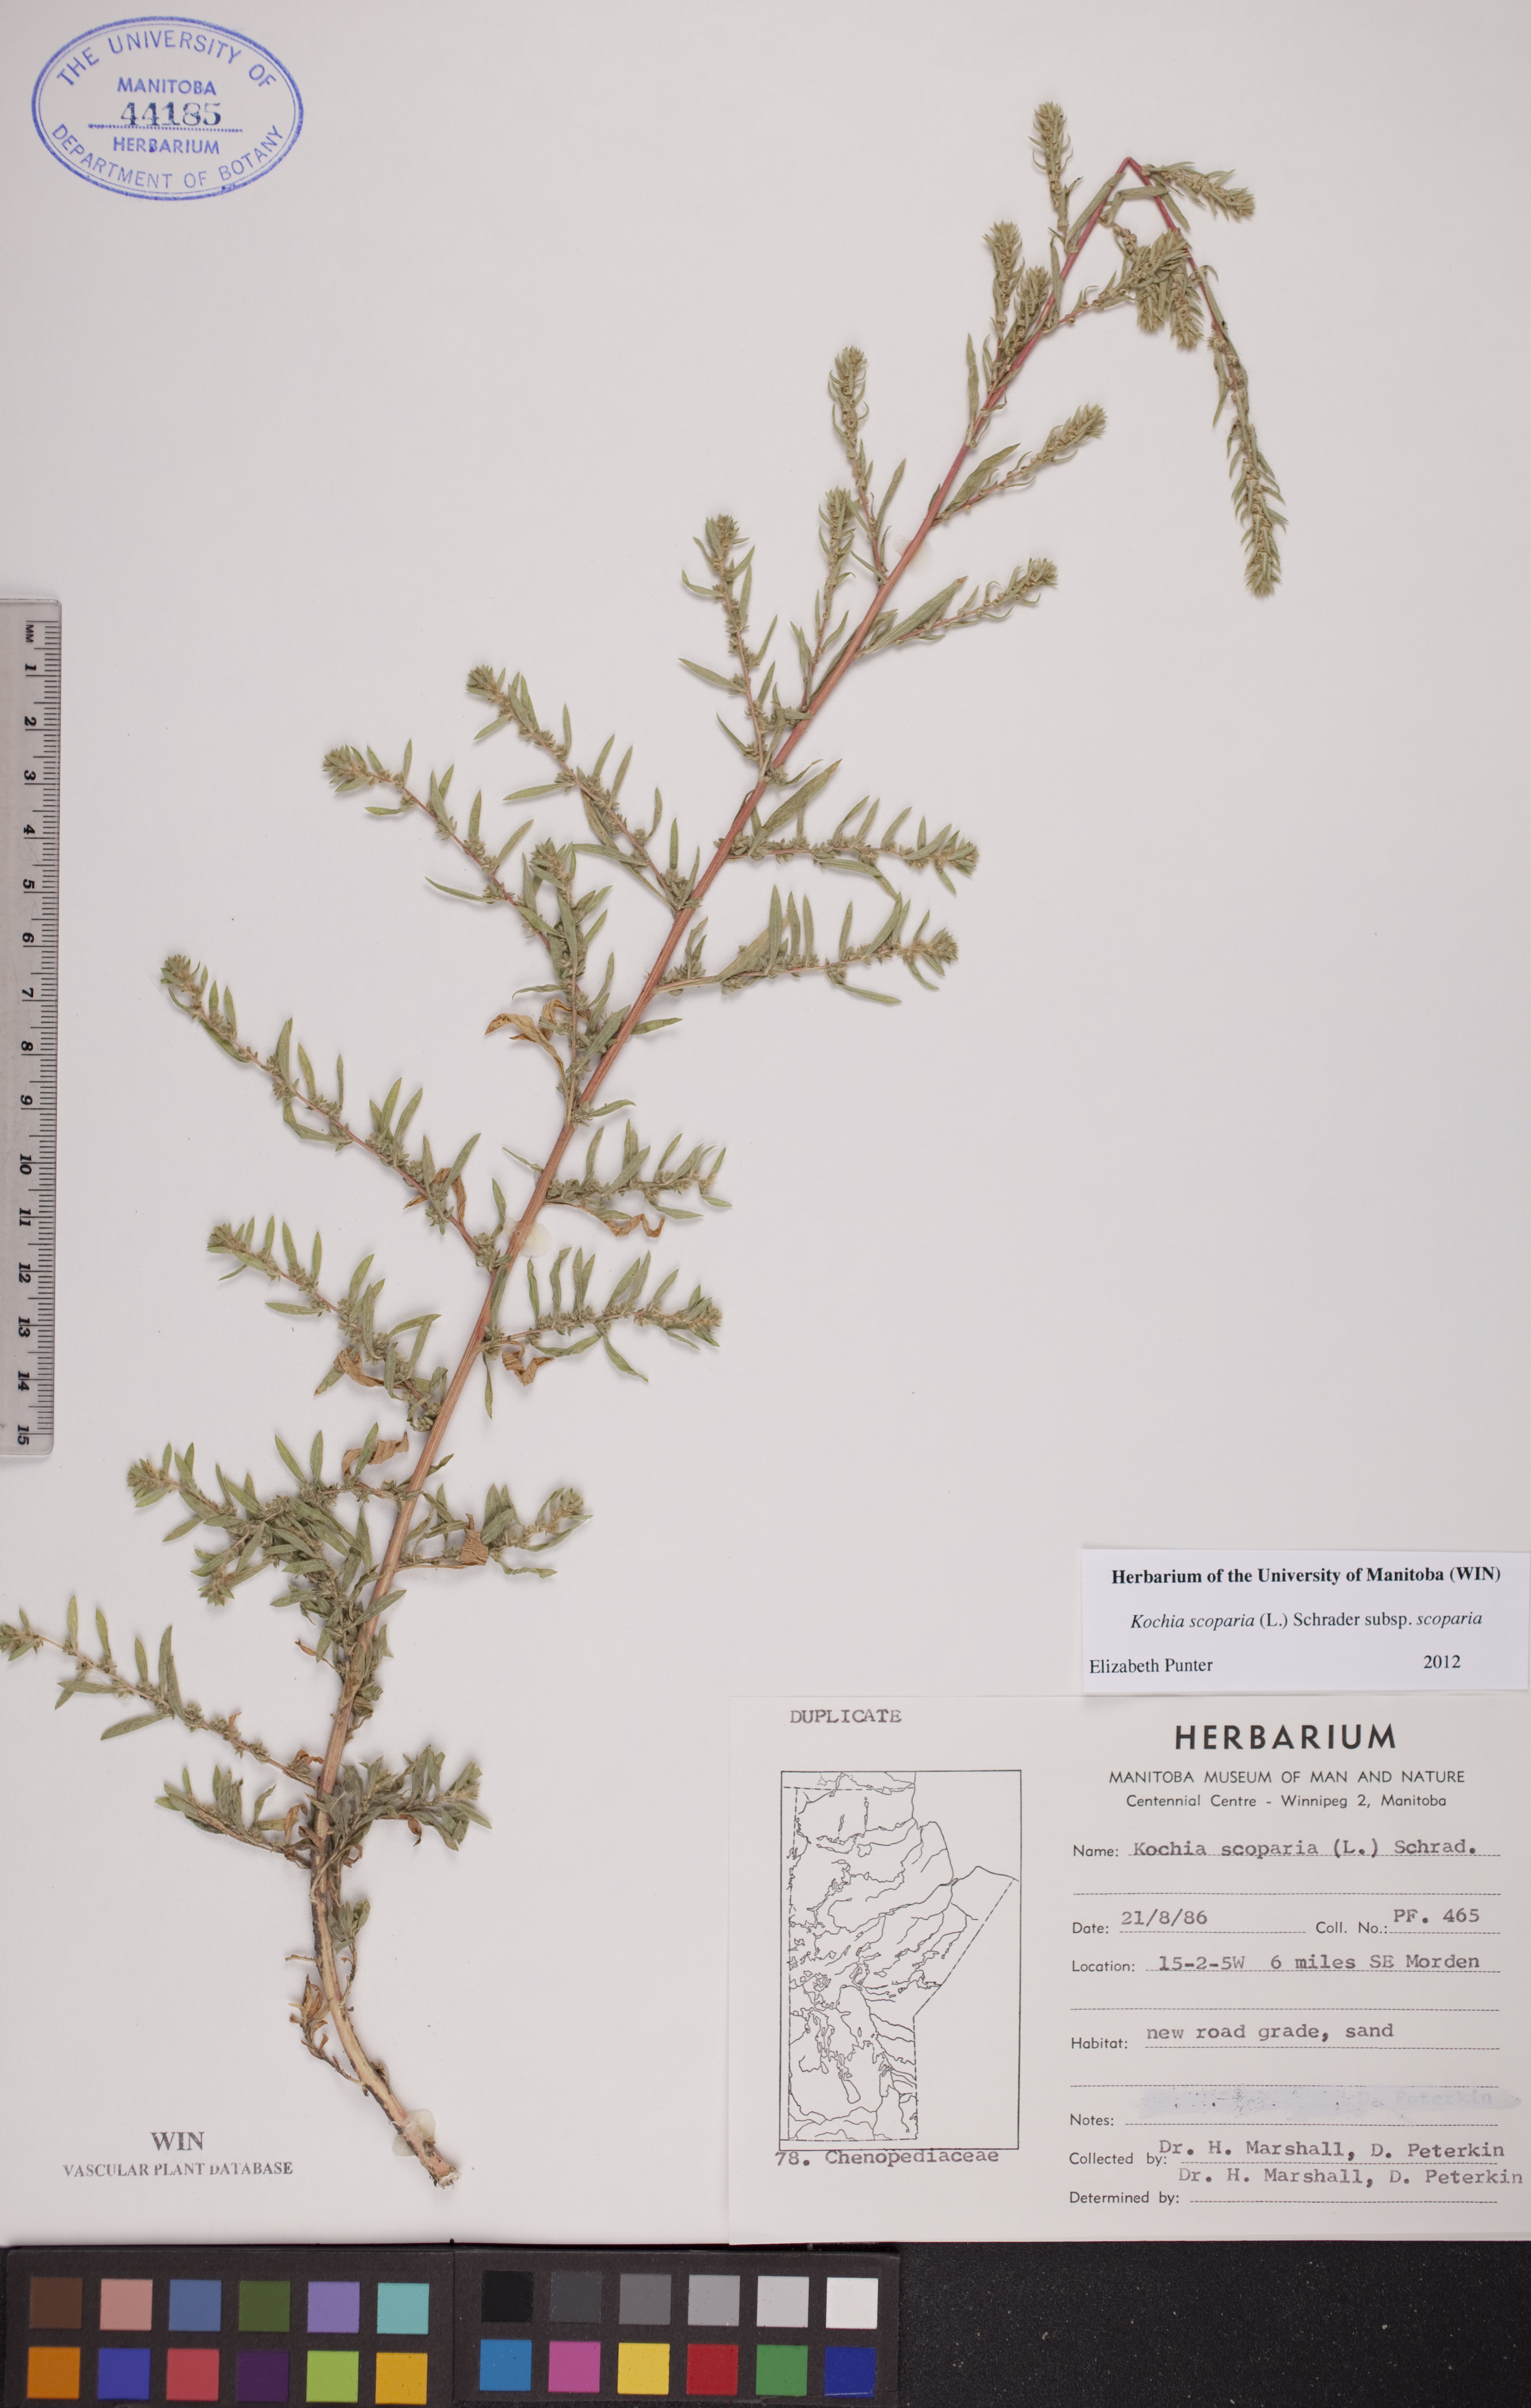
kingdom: Plantae
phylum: Tracheophyta
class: Magnoliopsida
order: Caryophyllales
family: Amaranthaceae
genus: Bassia
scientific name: Bassia scoparia
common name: Belvedere
